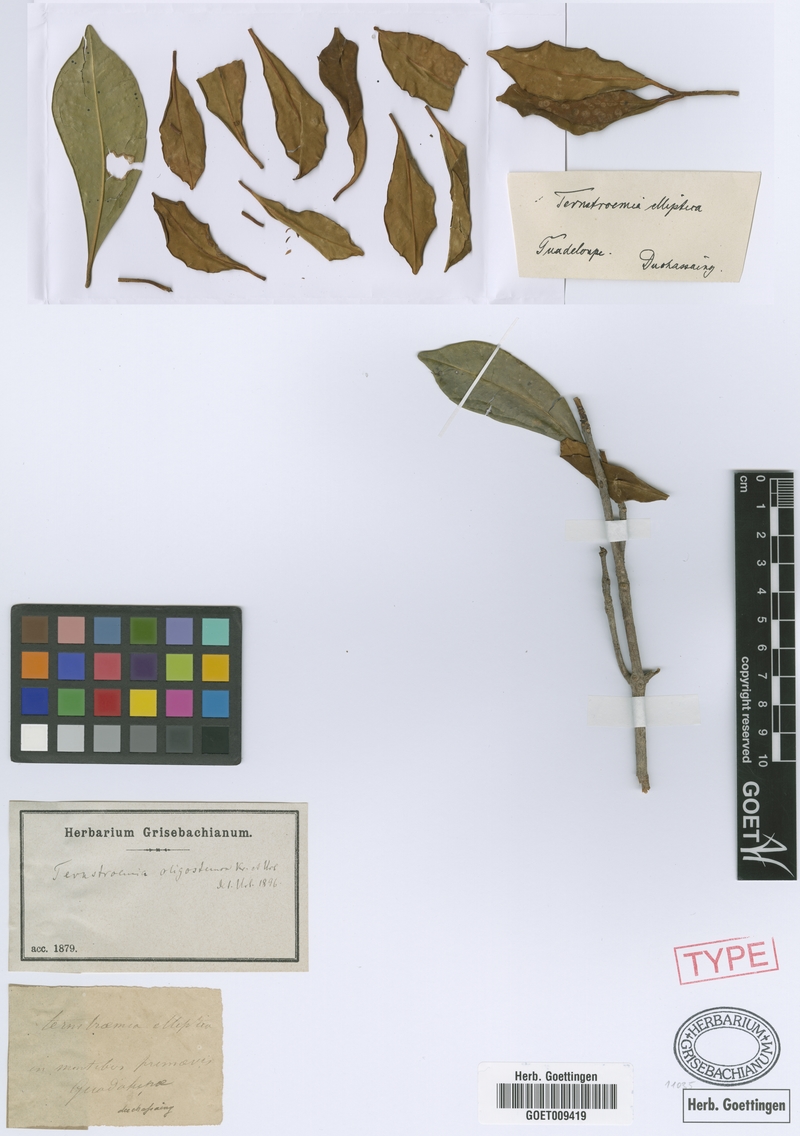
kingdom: Plantae
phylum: Tracheophyta
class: Magnoliopsida
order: Ericales
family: Pentaphylacaceae
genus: Ternstroemia
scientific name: Ternstroemia oligostemon
